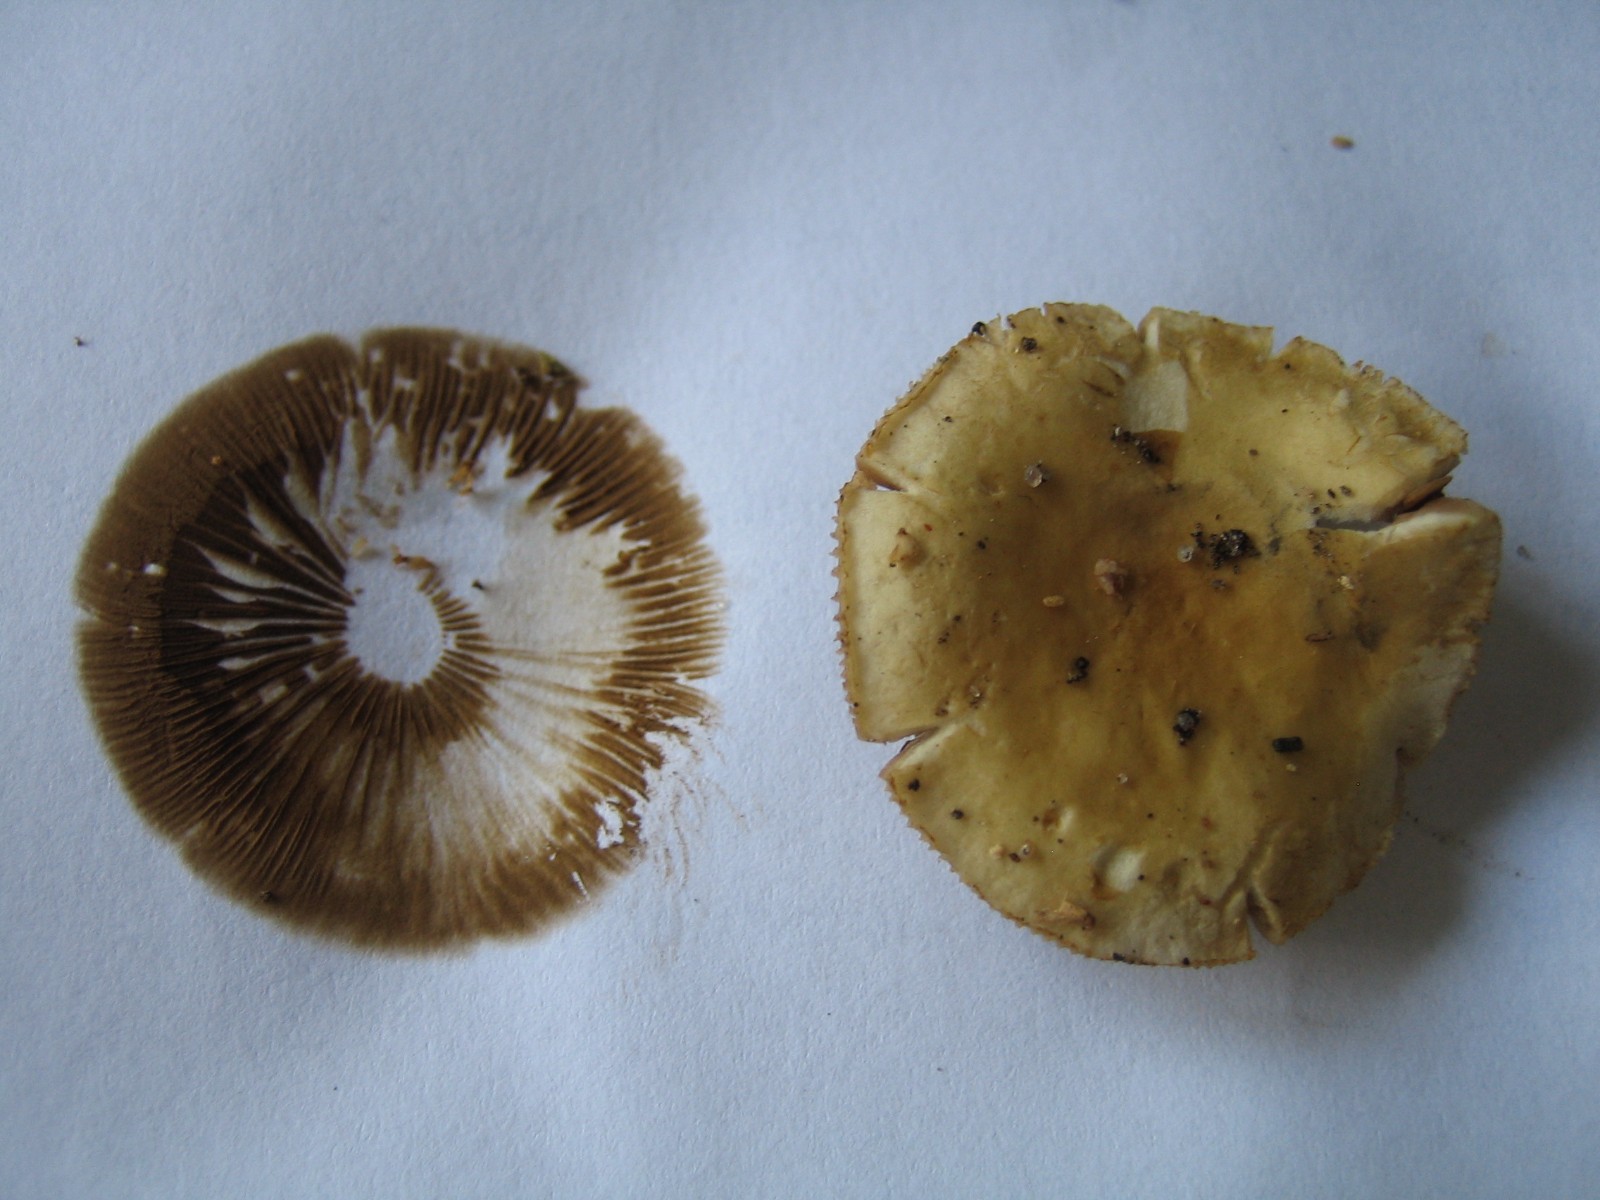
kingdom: Fungi
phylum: Basidiomycota
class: Agaricomycetes
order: Agaricales
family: Strophariaceae
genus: Agrocybe
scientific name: Agrocybe praecox
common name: tidlig agerhat
